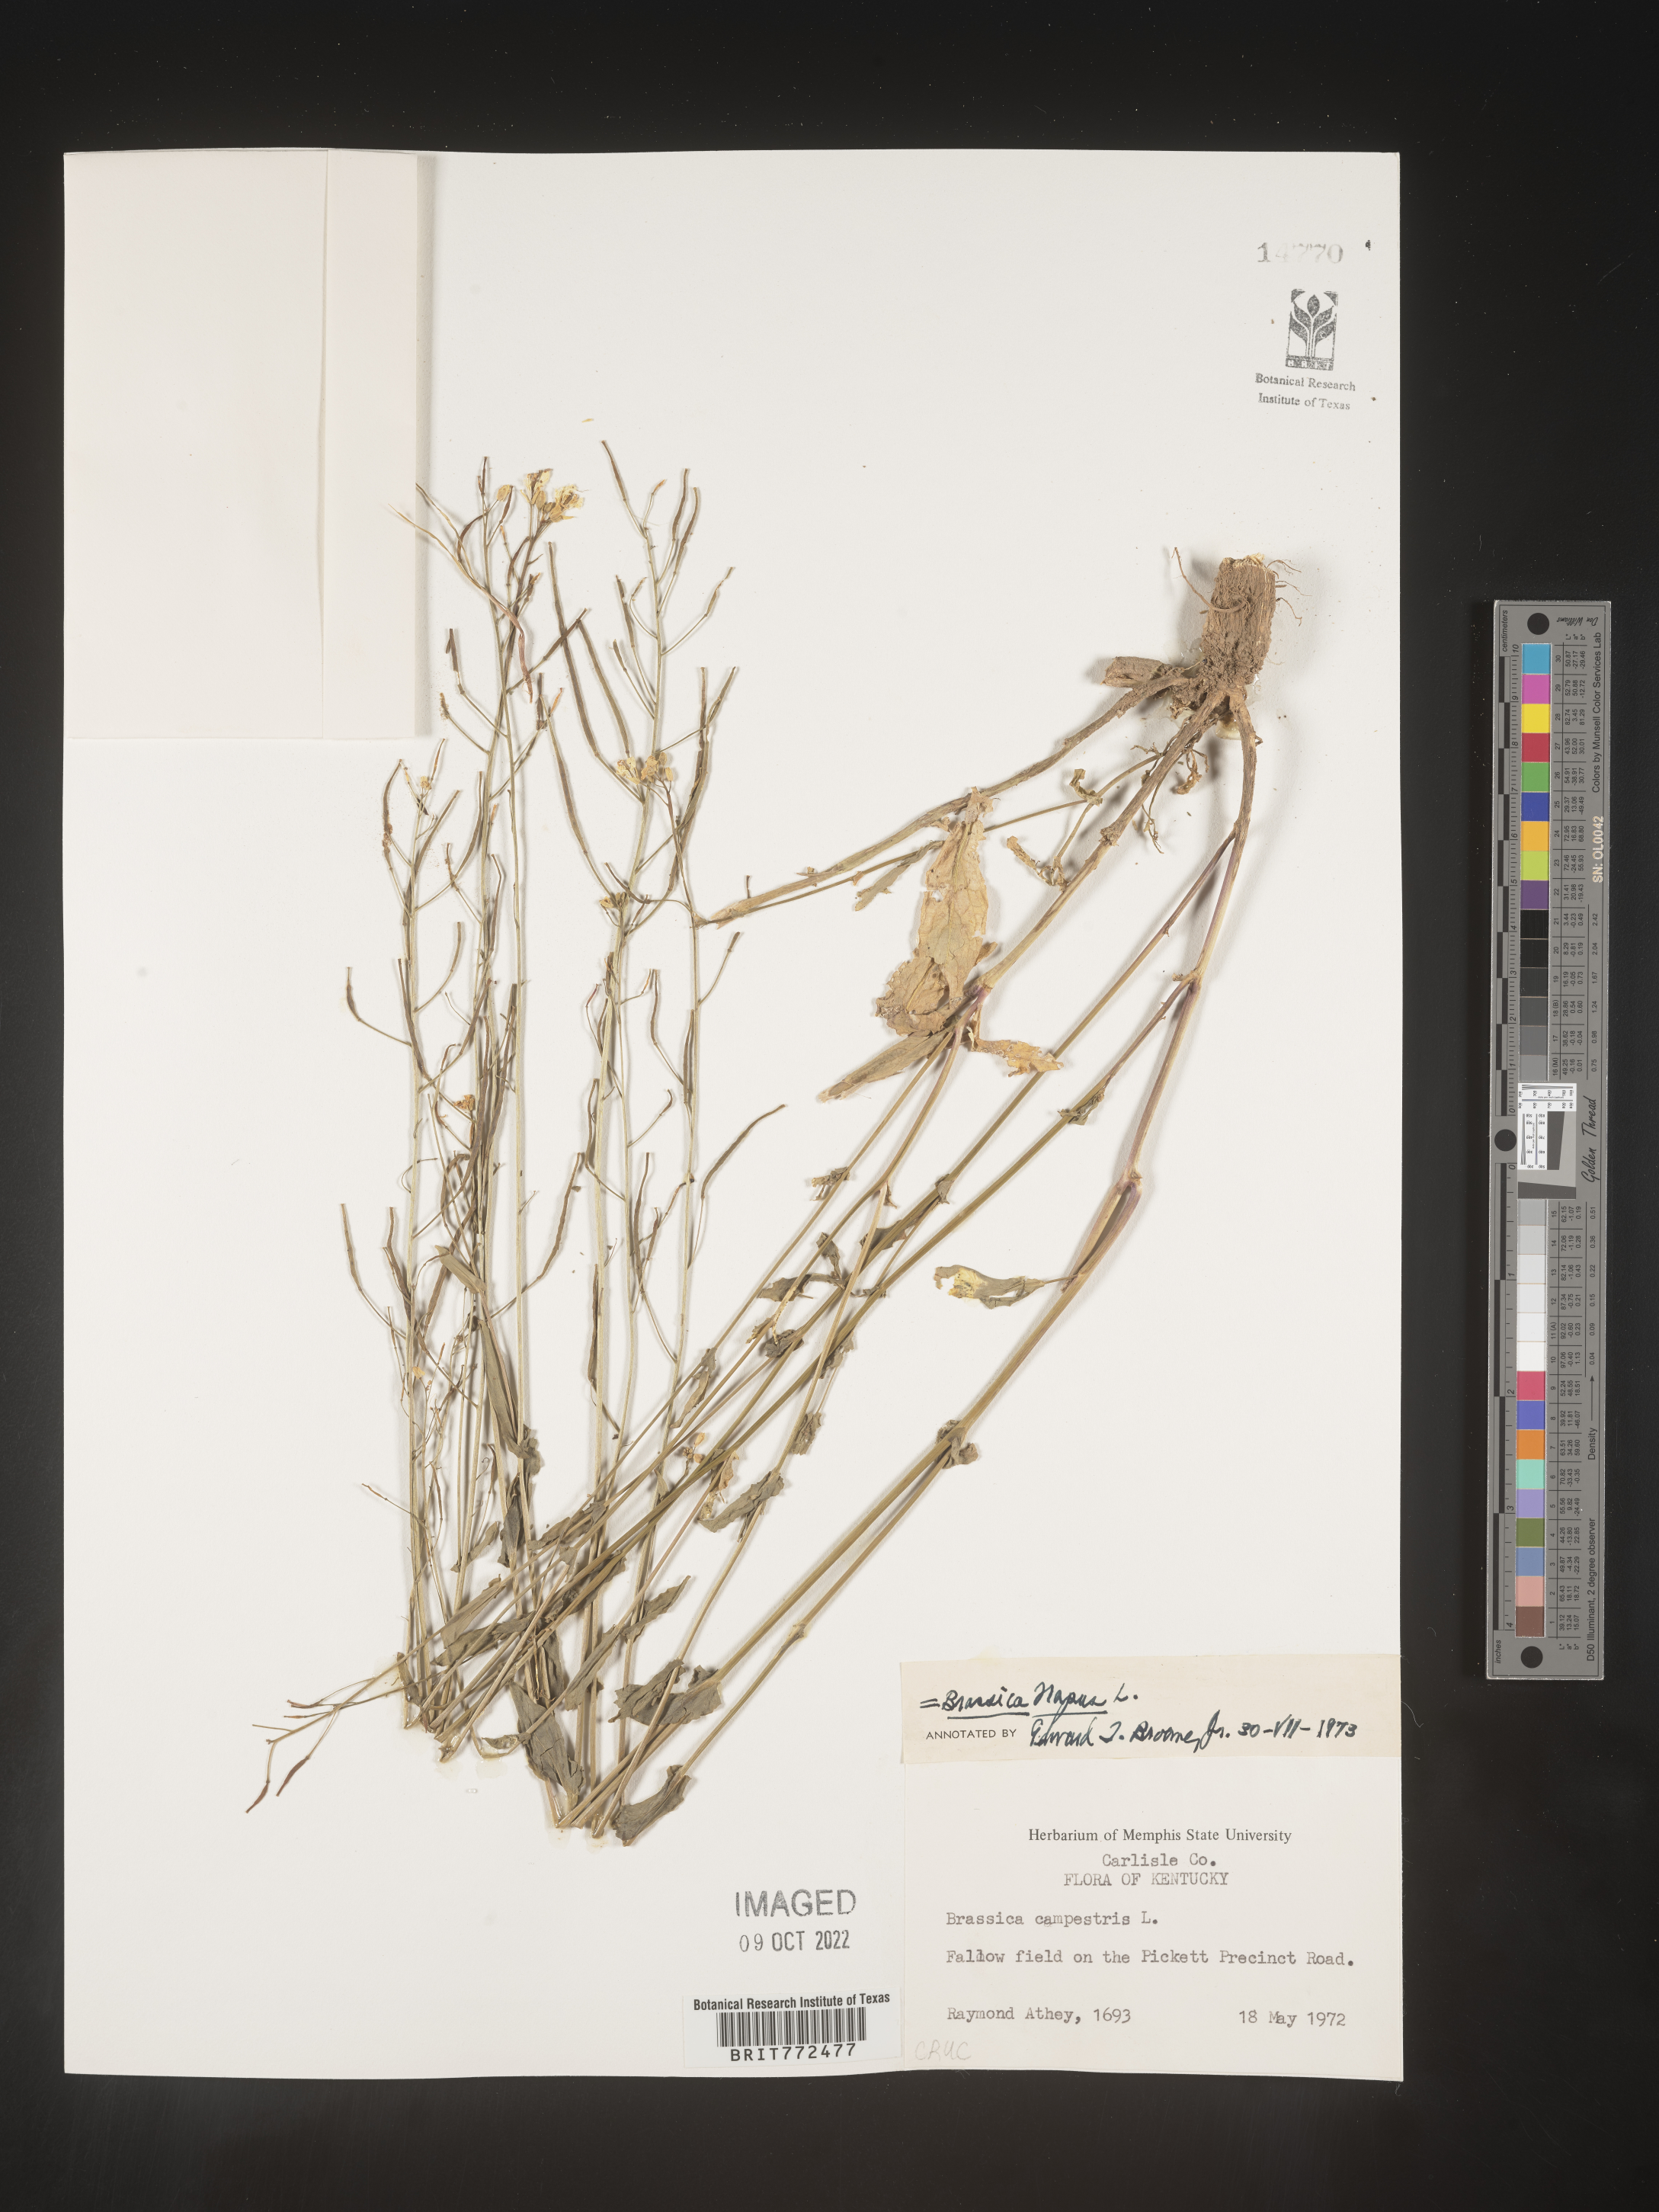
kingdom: Plantae
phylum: Tracheophyta
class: Magnoliopsida
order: Brassicales
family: Brassicaceae
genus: Brassica
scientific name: Brassica
